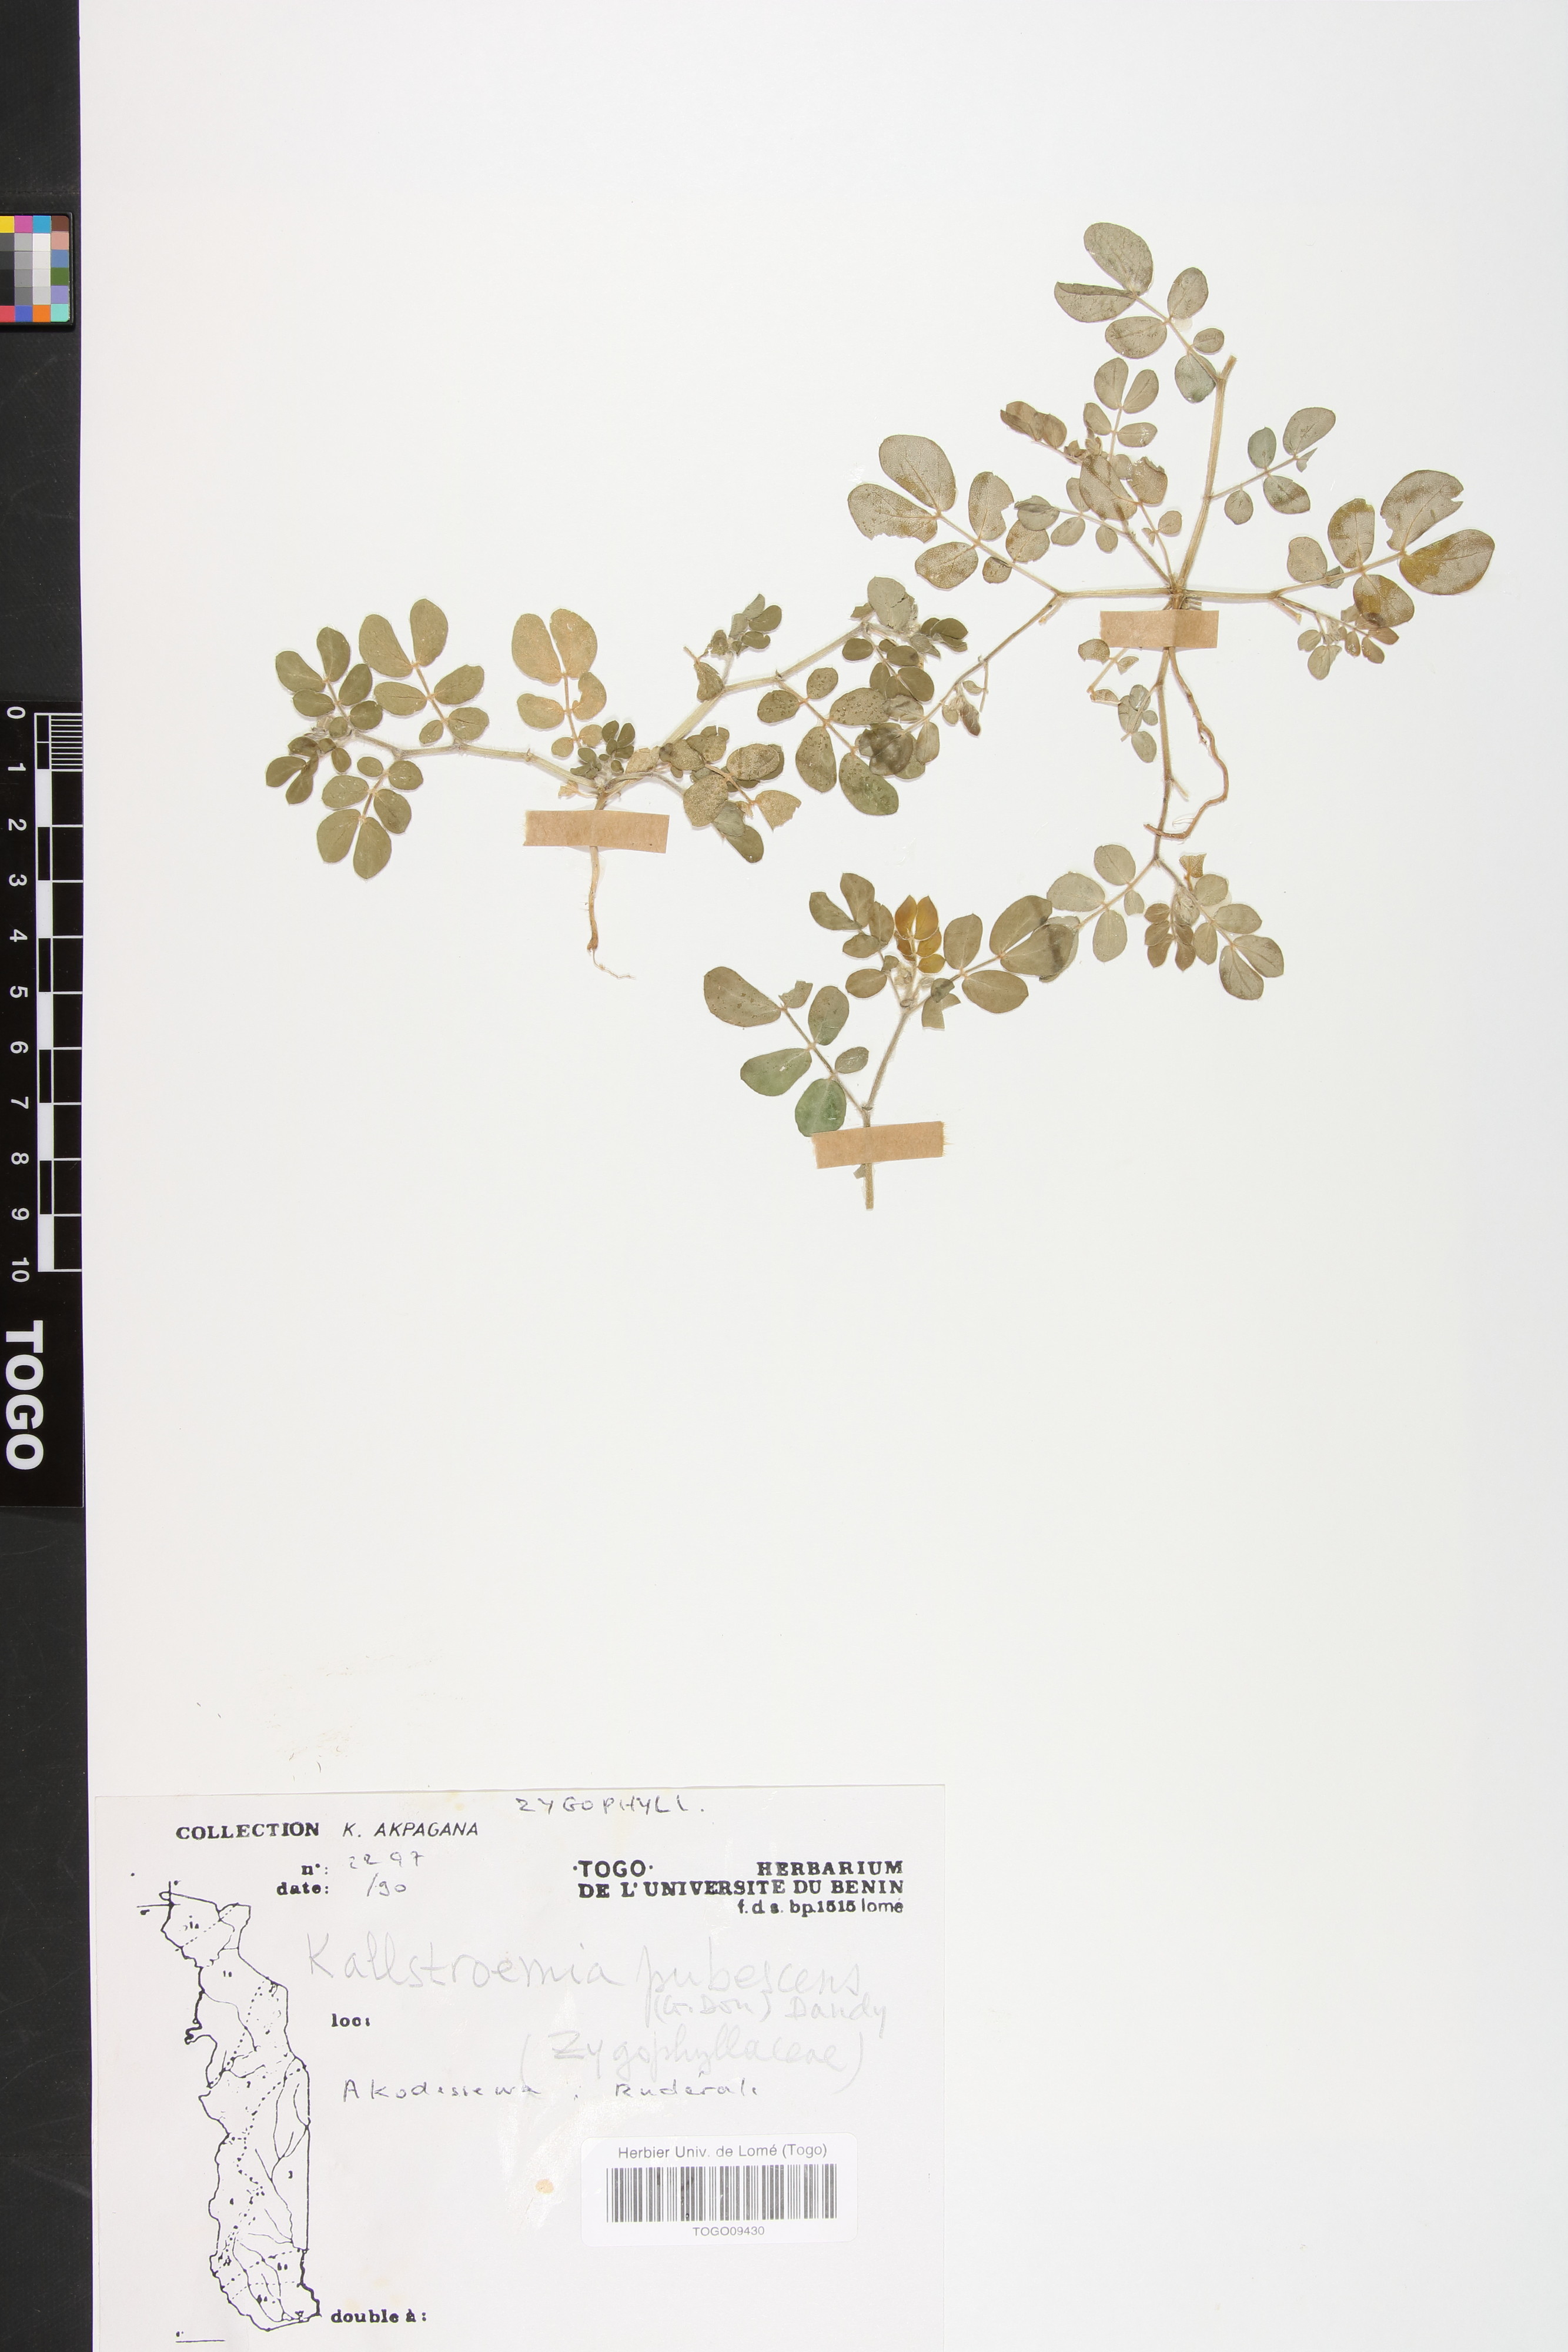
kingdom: Plantae
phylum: Tracheophyta
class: Magnoliopsida
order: Zygophyllales
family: Zygophyllaceae
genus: Kallstroemia
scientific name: Kallstroemia pubescens
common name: Caribbean caltrop
